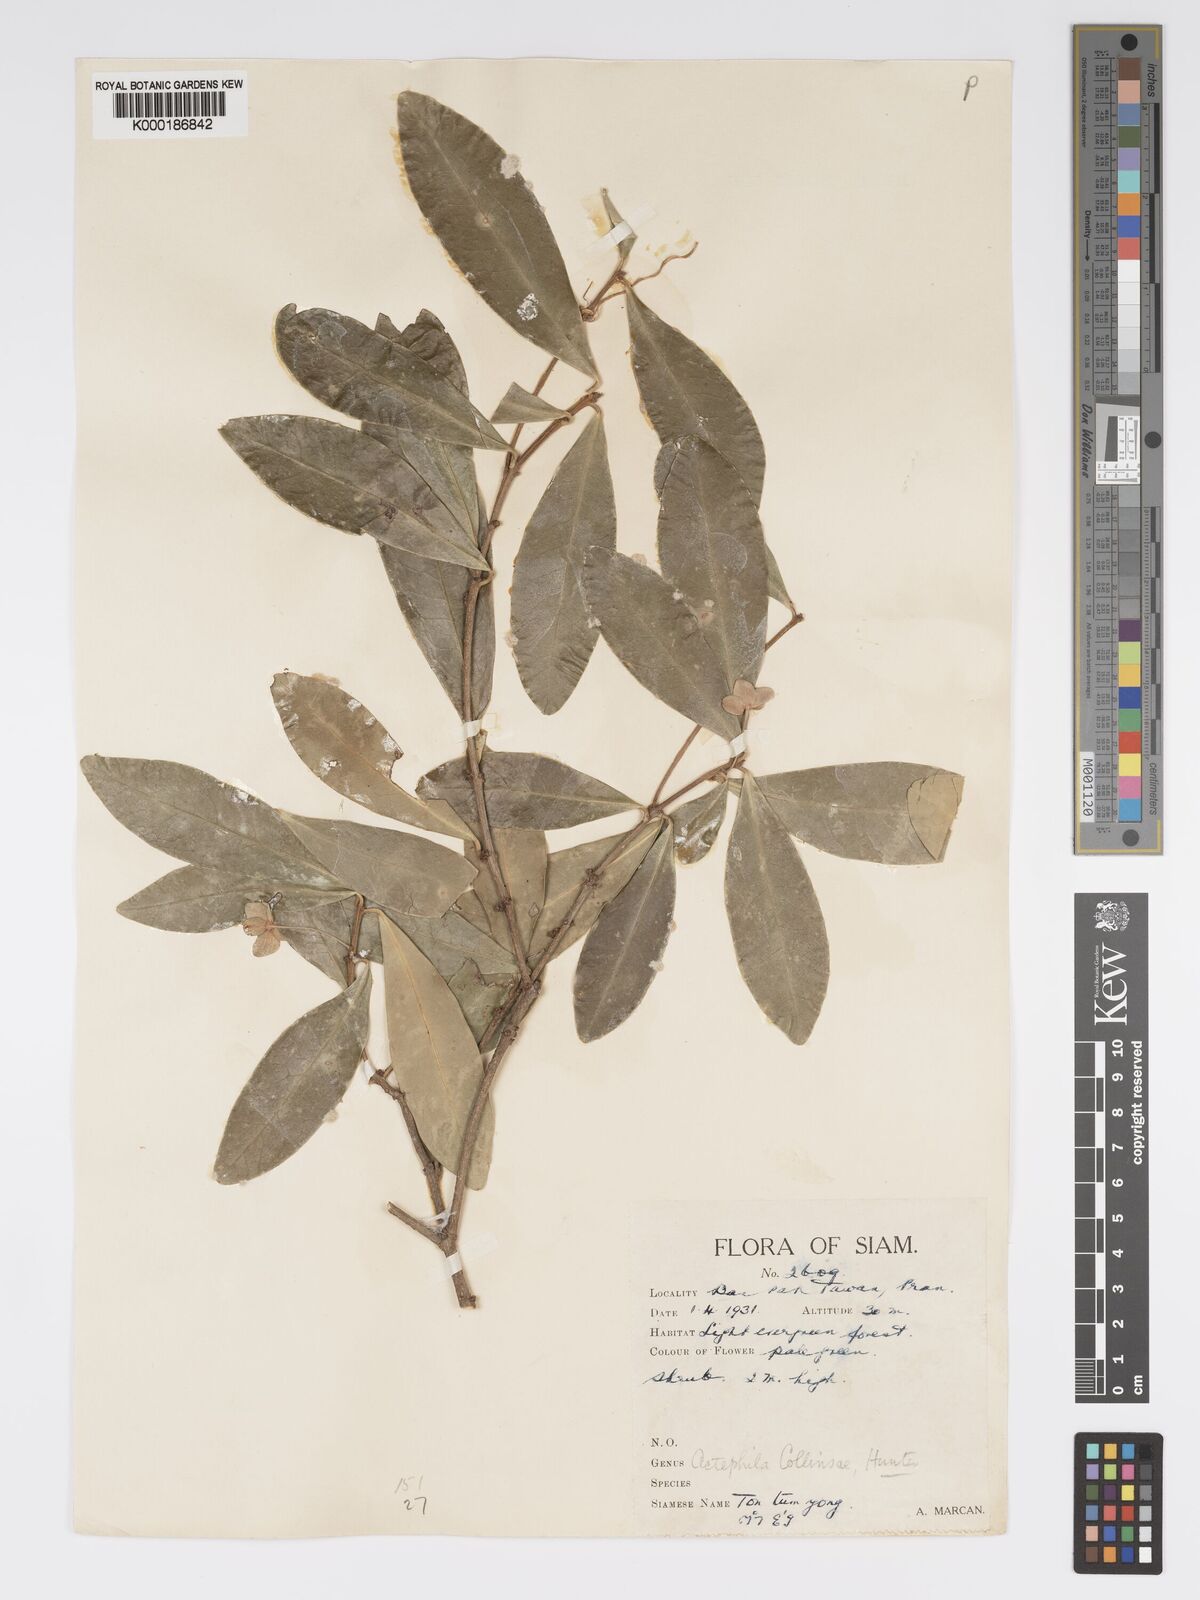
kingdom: Plantae
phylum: Tracheophyta
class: Magnoliopsida
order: Malpighiales
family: Phyllanthaceae
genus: Actephila
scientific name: Actephila collinsiae
